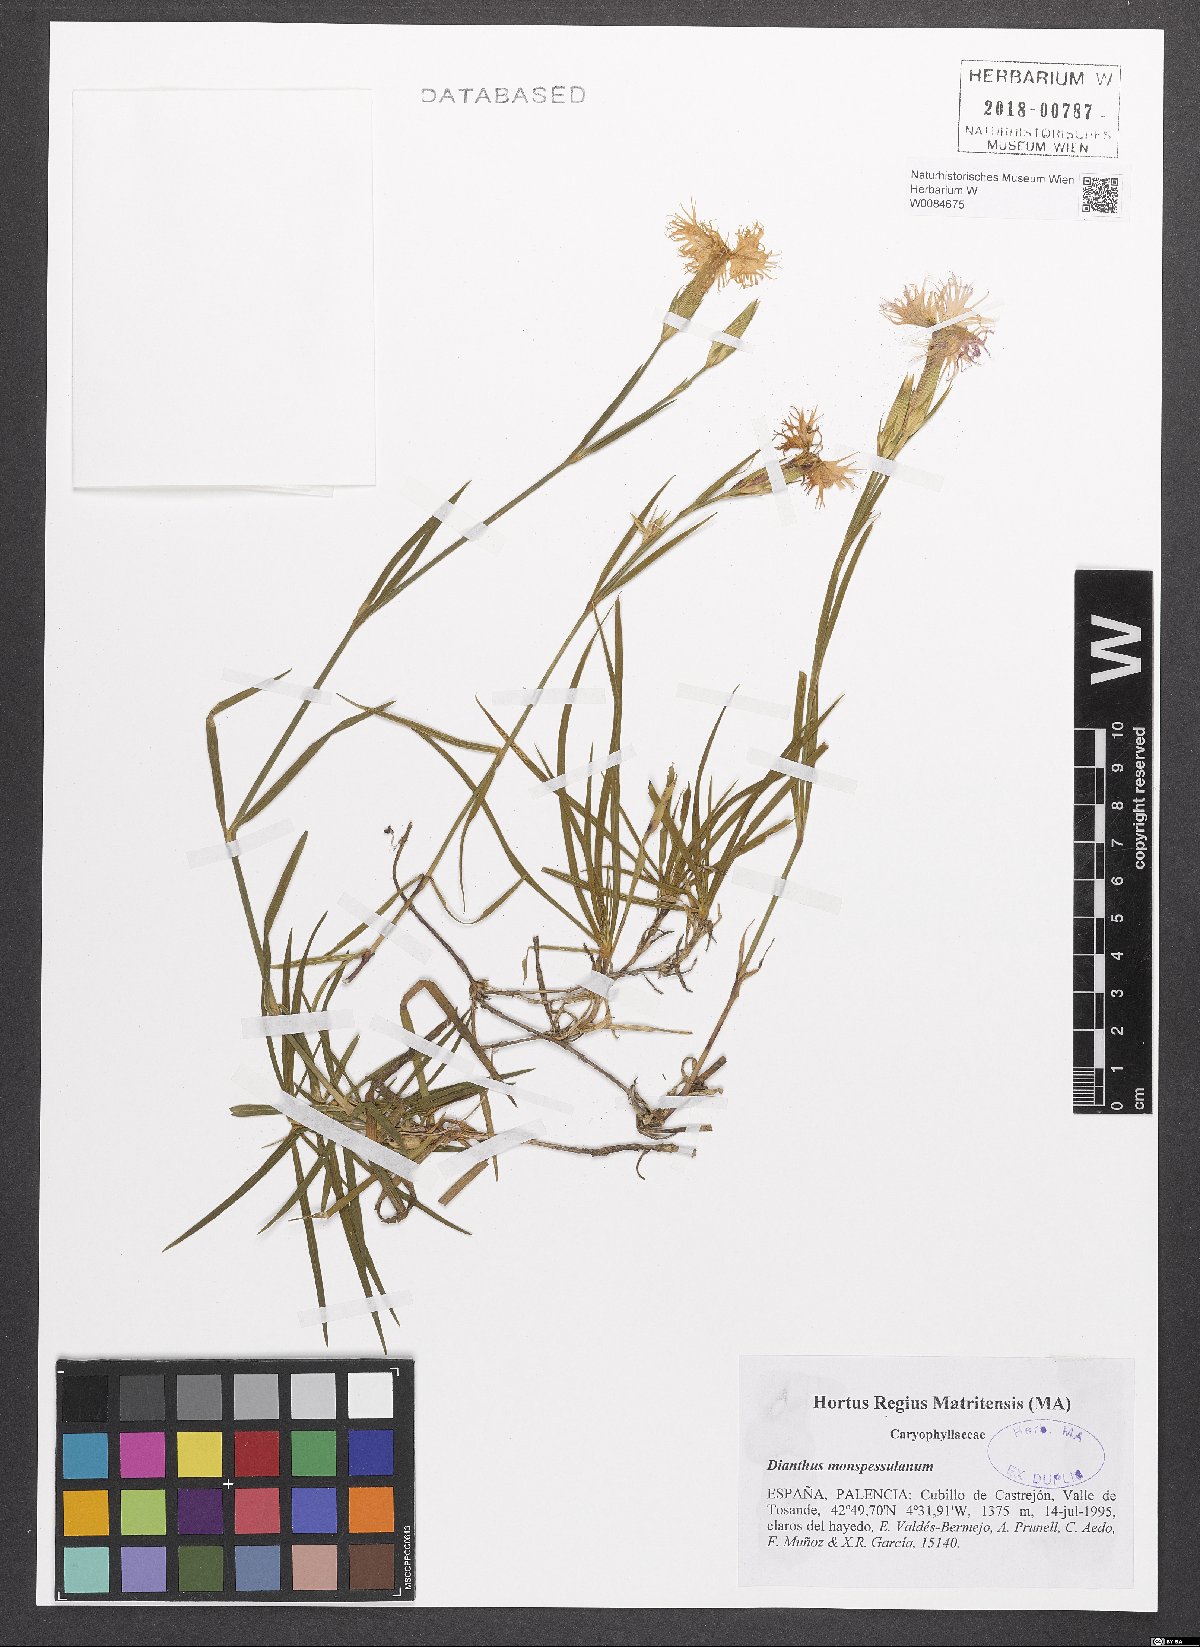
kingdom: Plantae
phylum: Tracheophyta
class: Magnoliopsida
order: Caryophyllales
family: Caryophyllaceae
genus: Dianthus
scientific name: Dianthus hyssopifolius
